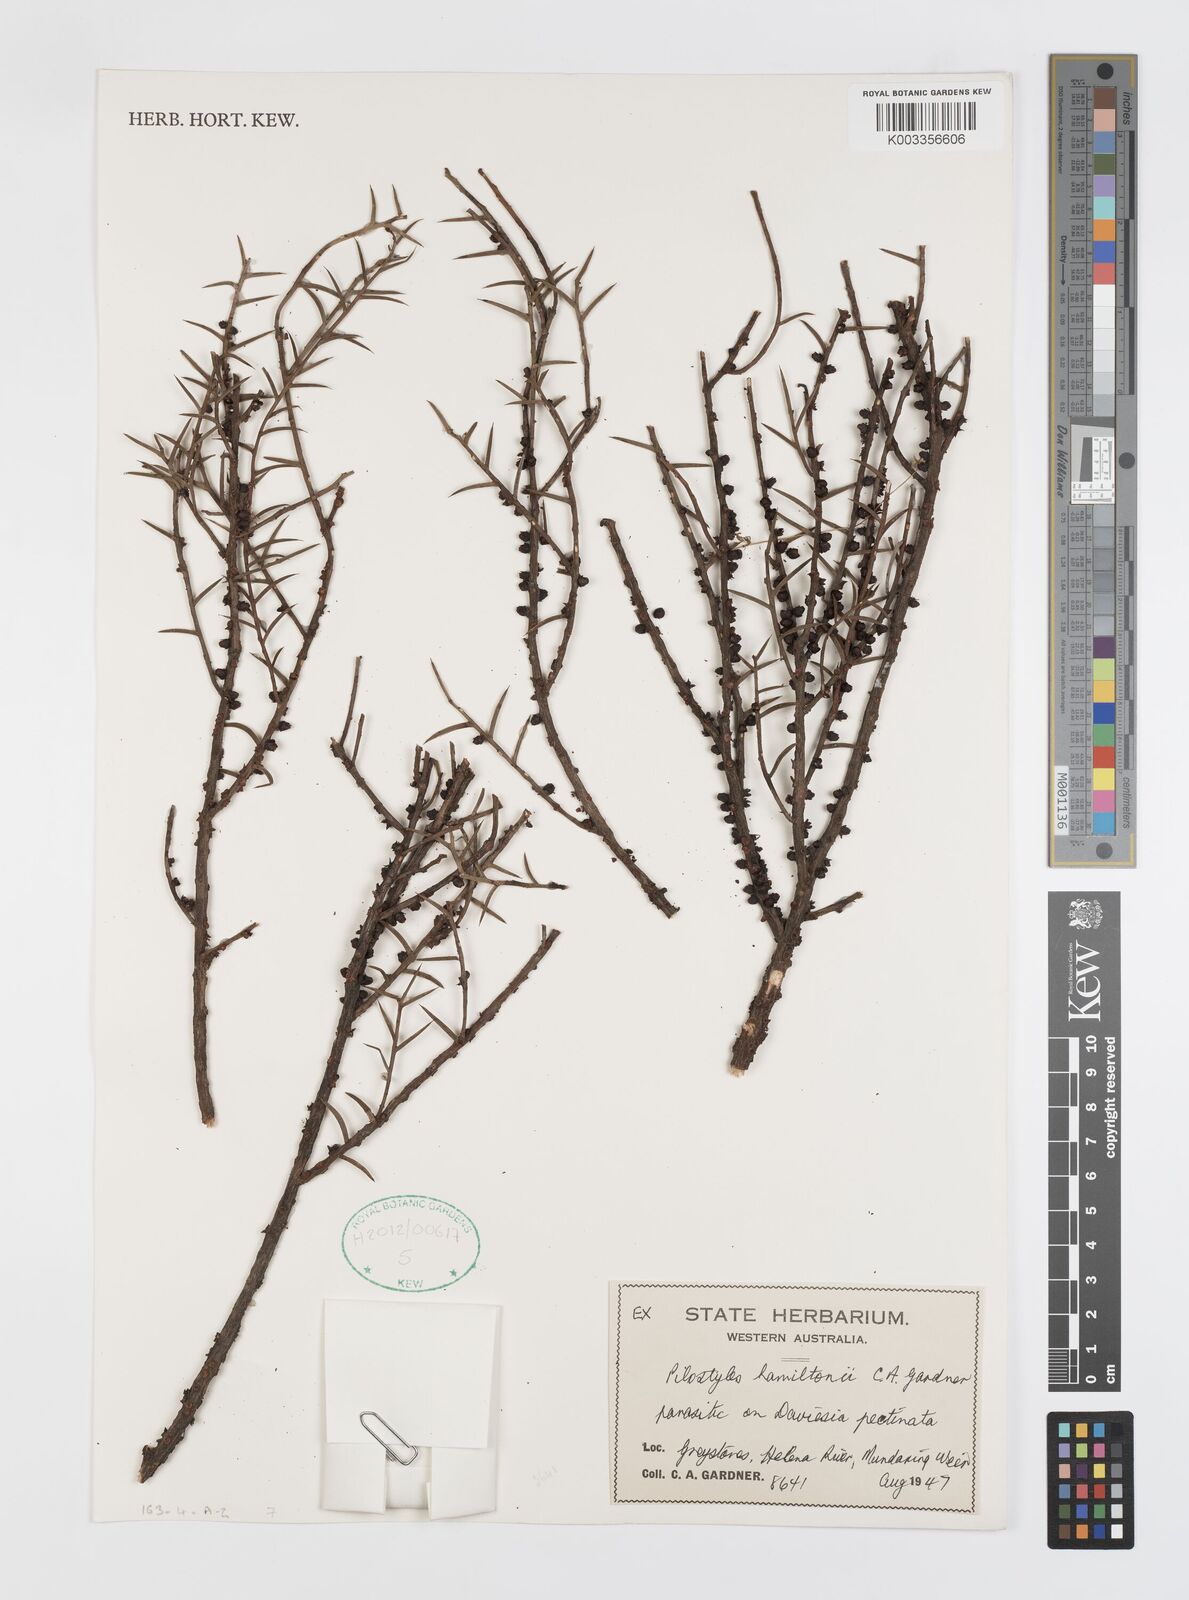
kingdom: Plantae
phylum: Tracheophyta
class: Magnoliopsida
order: Cucurbitales
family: Apodanthaceae
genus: Pilostyles
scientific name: Pilostyles haussknechtii
